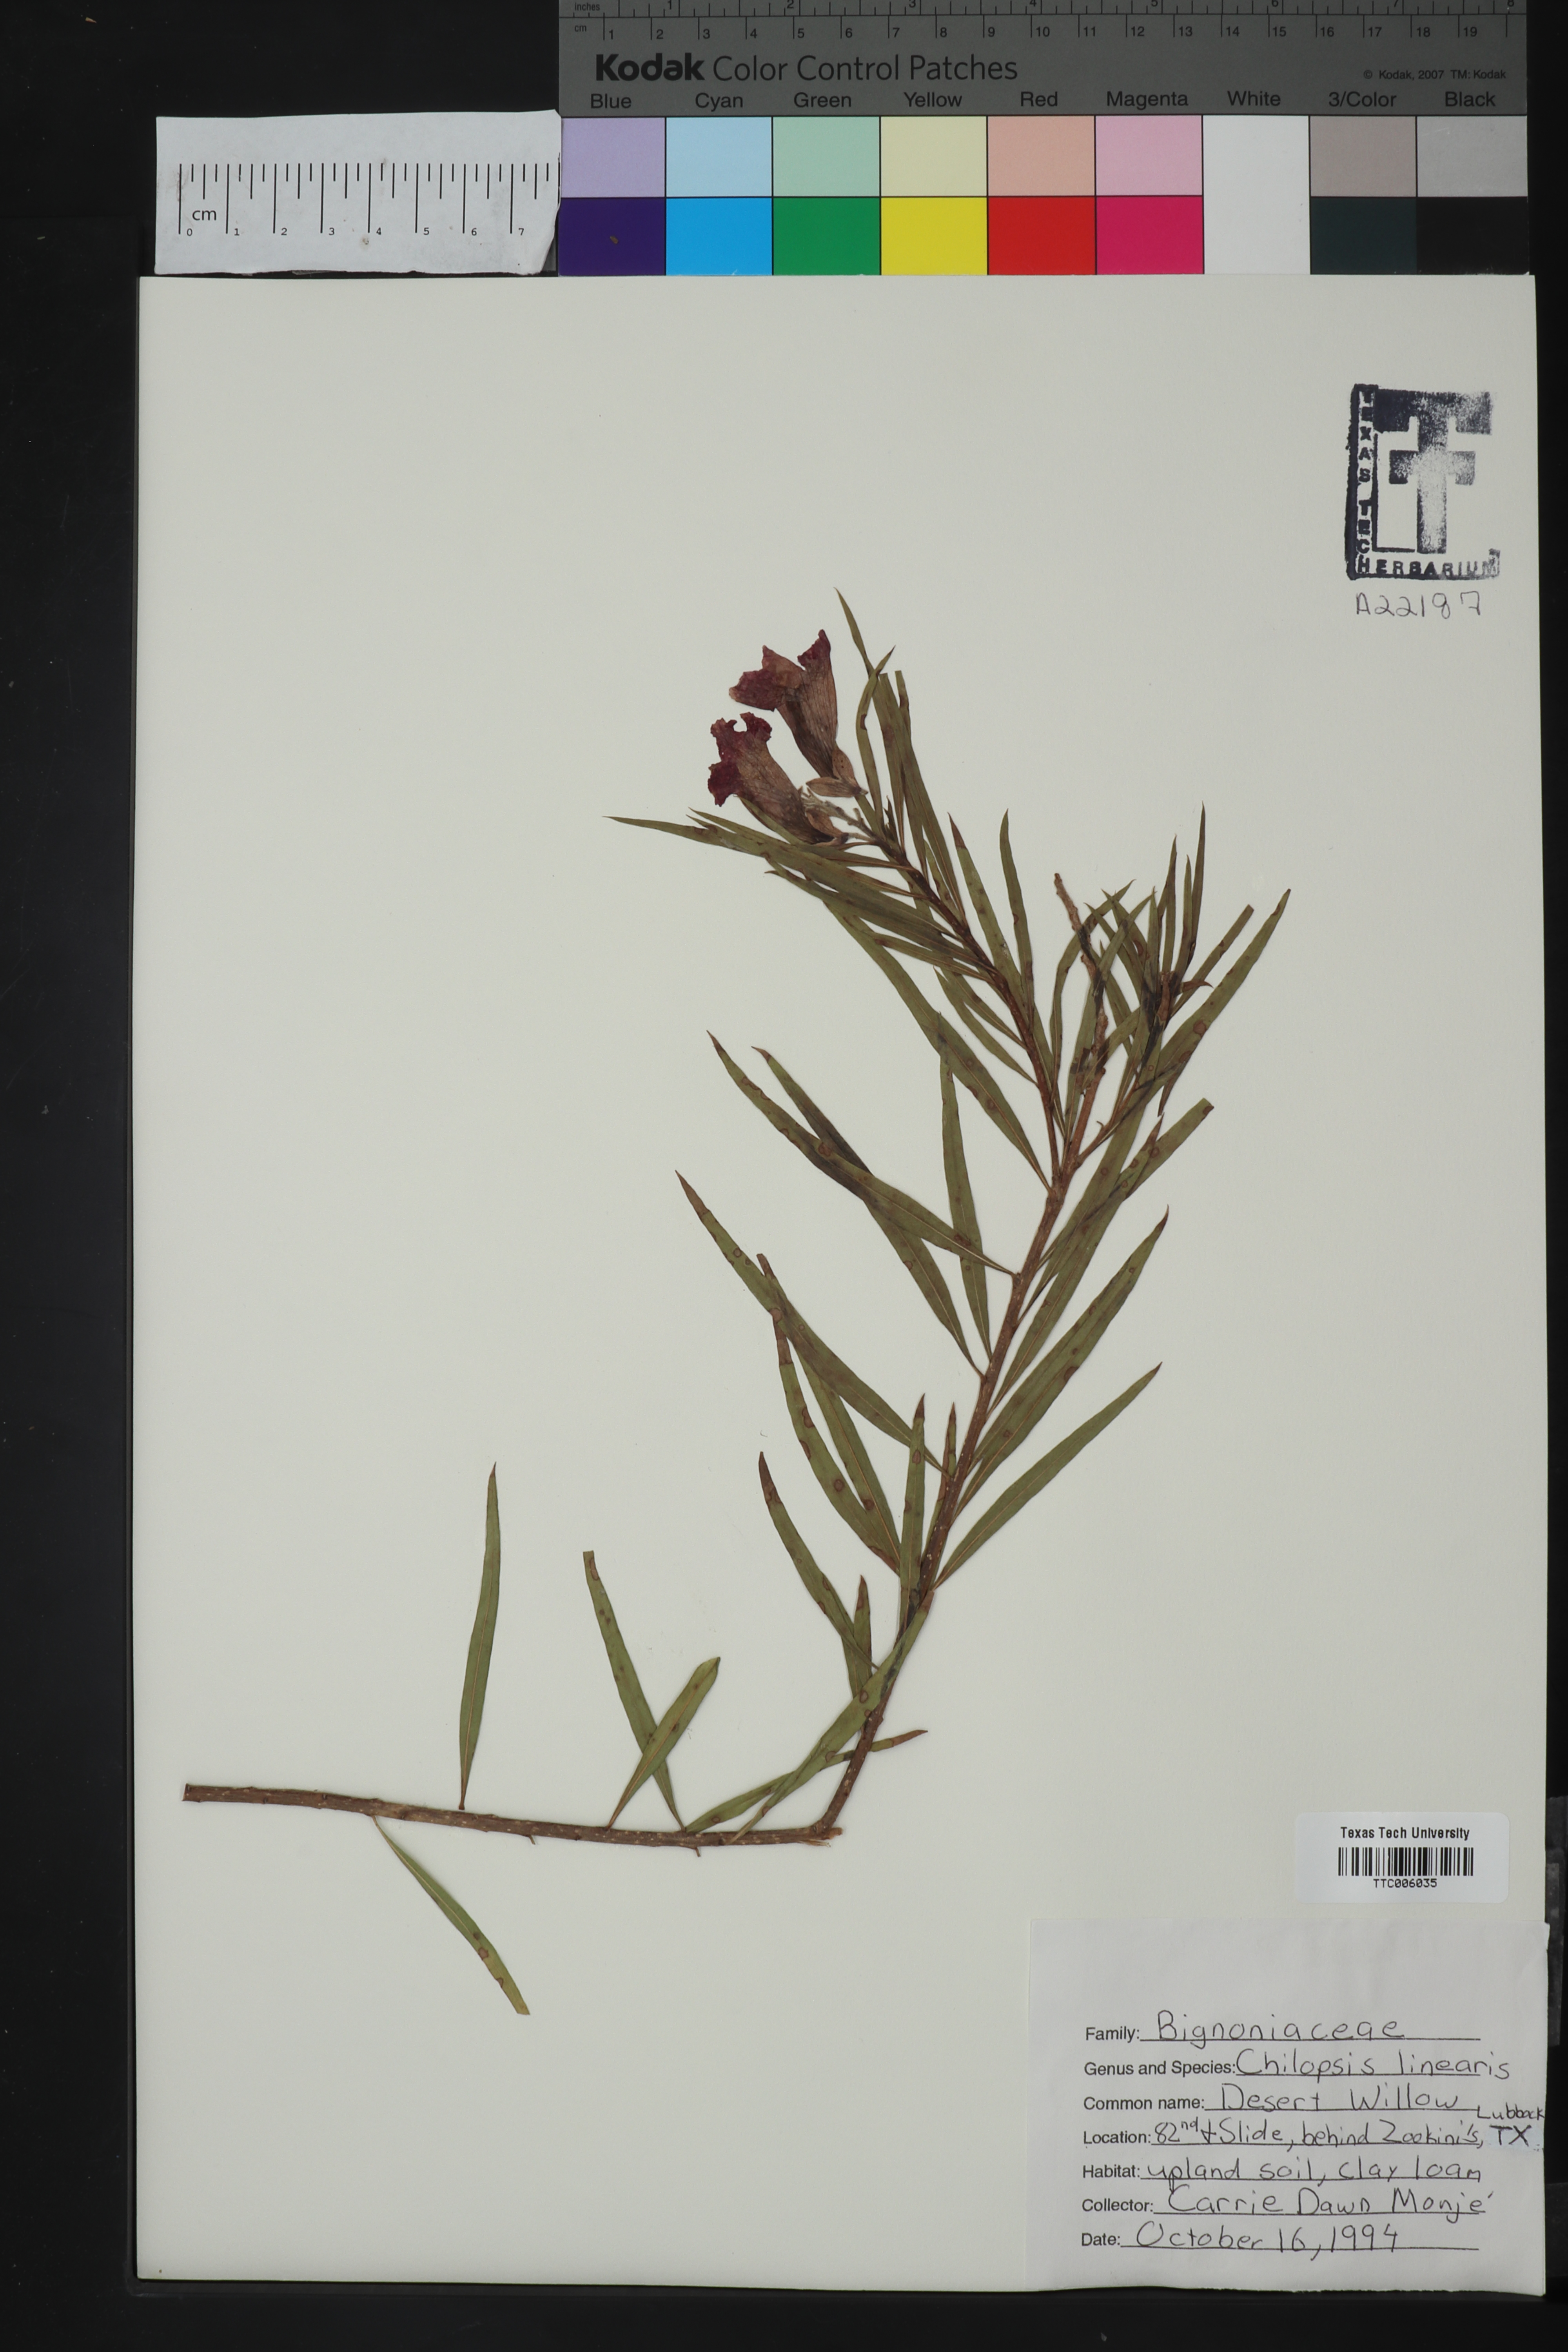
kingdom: Plantae
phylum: Tracheophyta
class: Magnoliopsida
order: Lamiales
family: Bignoniaceae
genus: Chilopsis
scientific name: Chilopsis linearis
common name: Desert-willow
